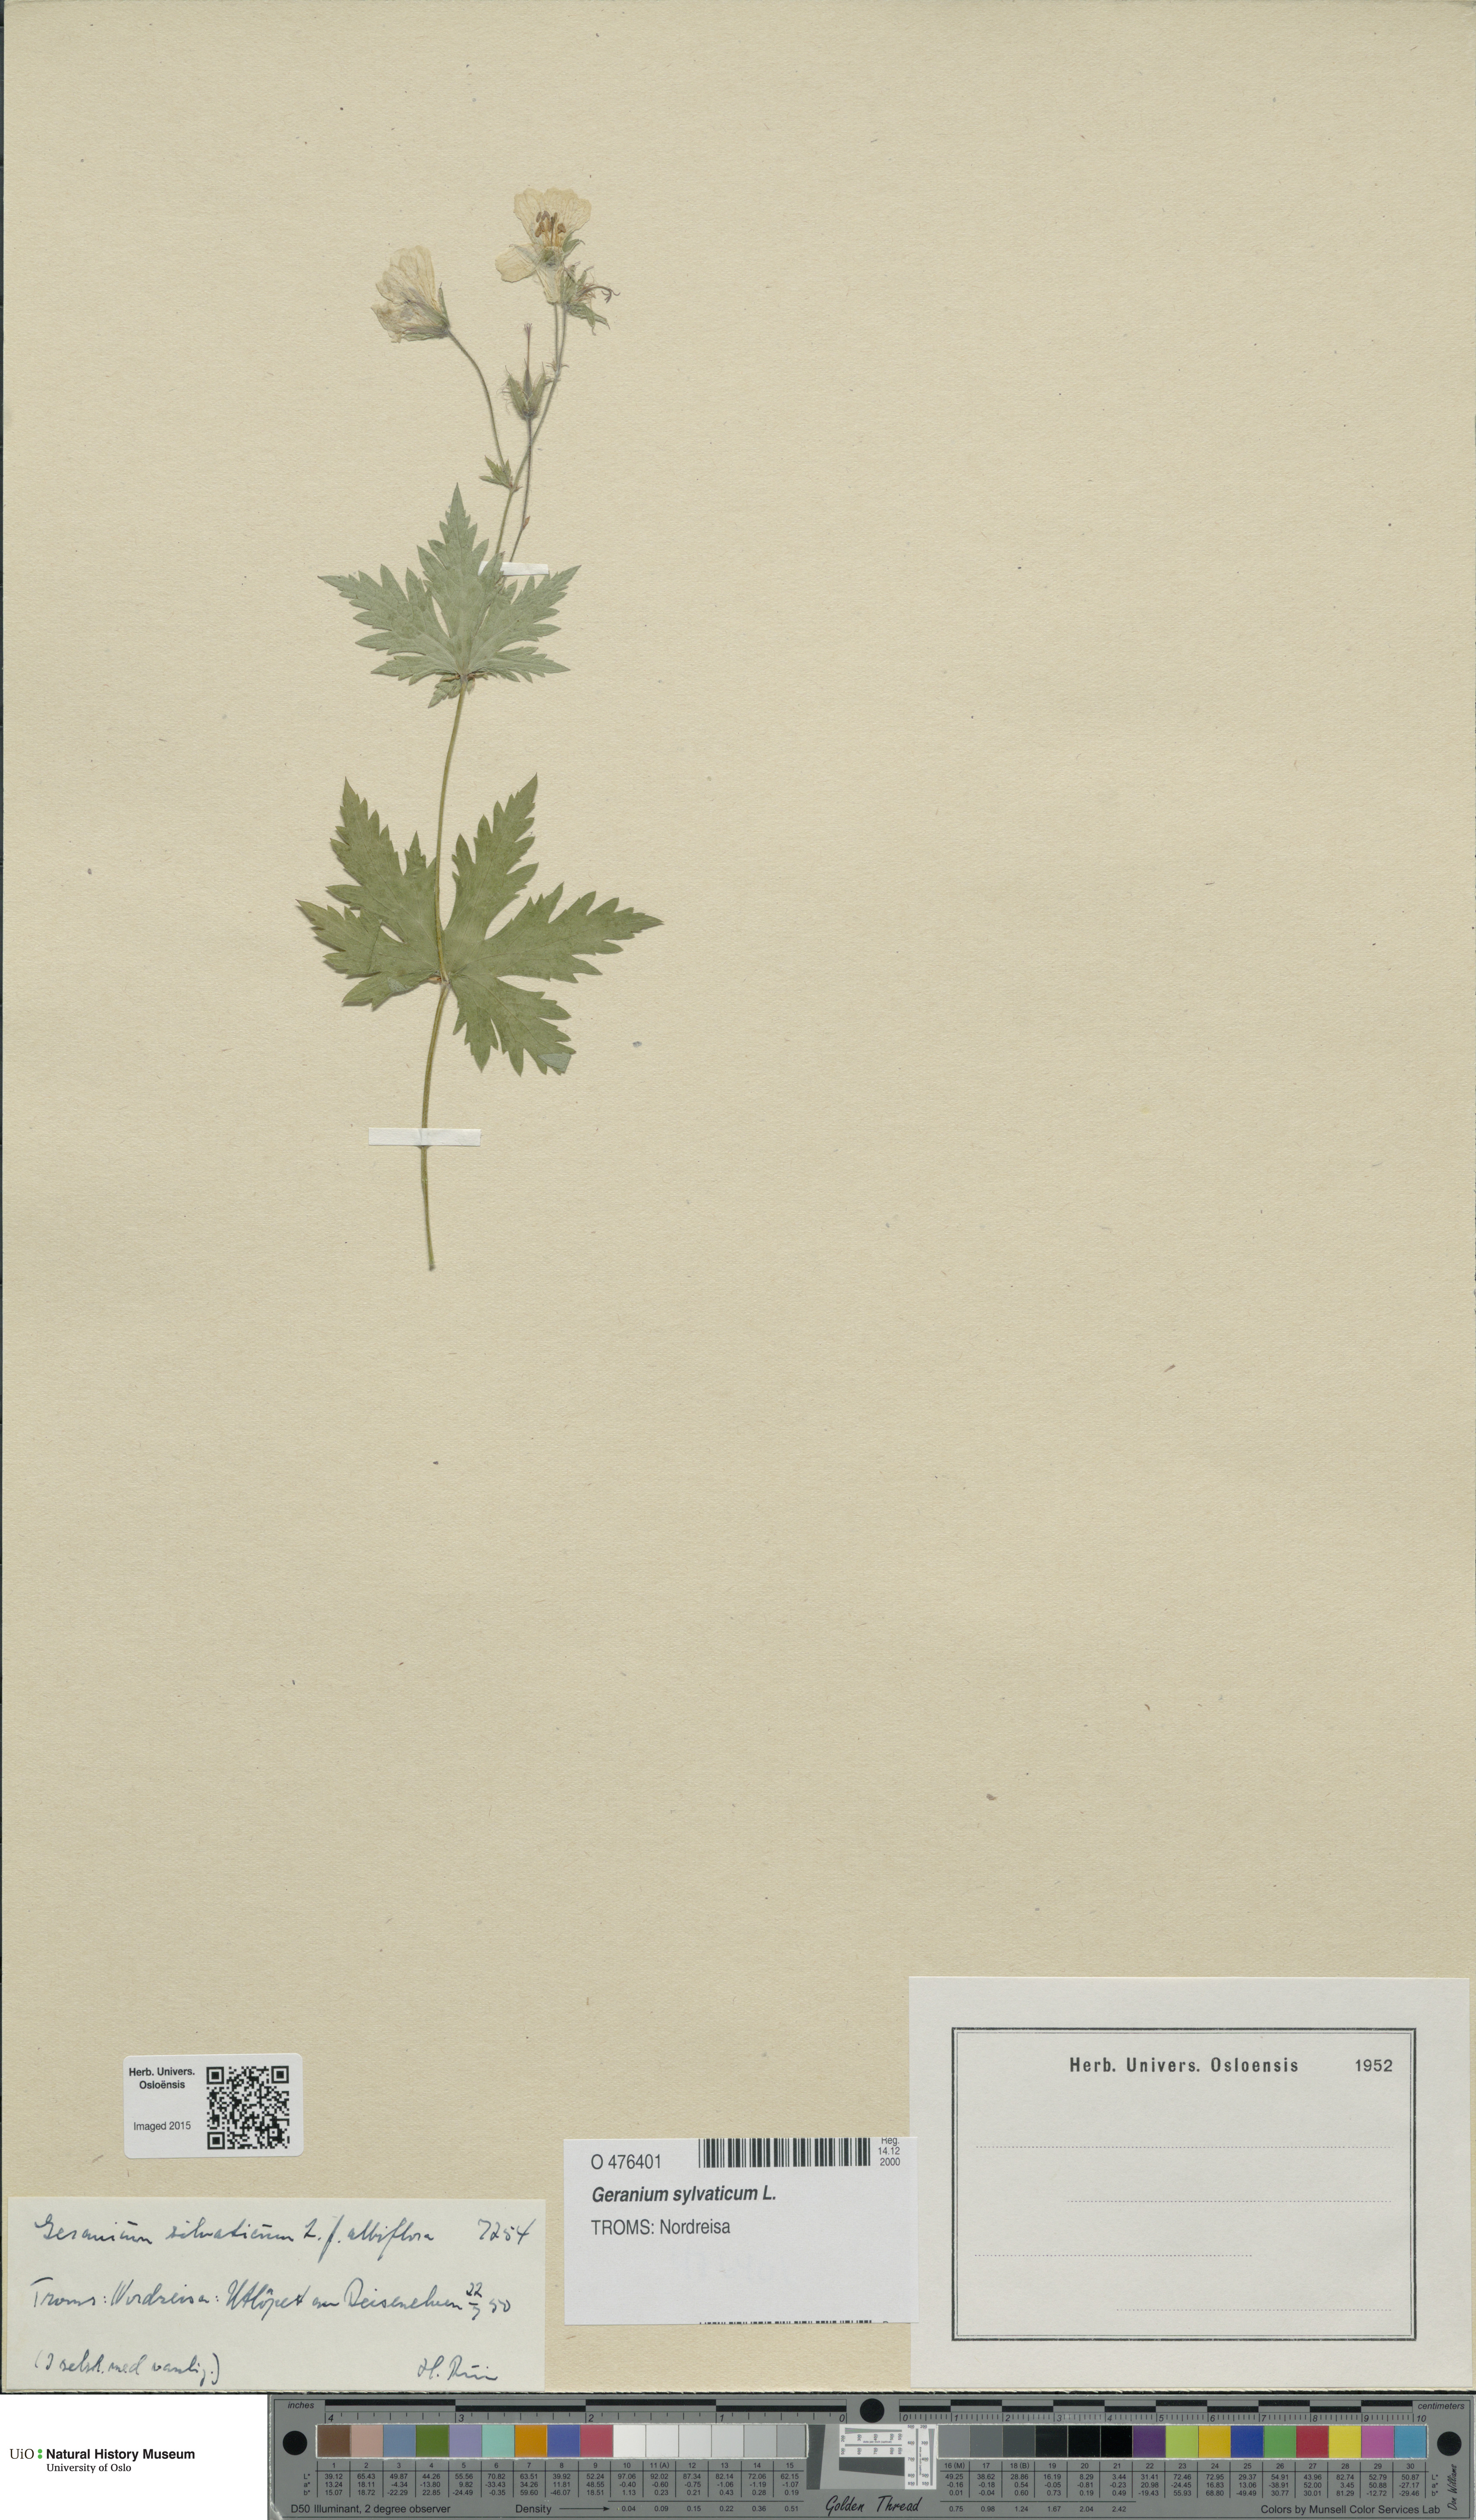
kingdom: Plantae
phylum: Tracheophyta
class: Magnoliopsida
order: Geraniales
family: Geraniaceae
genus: Geranium
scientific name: Geranium sylvaticum
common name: Wood crane's-bill
